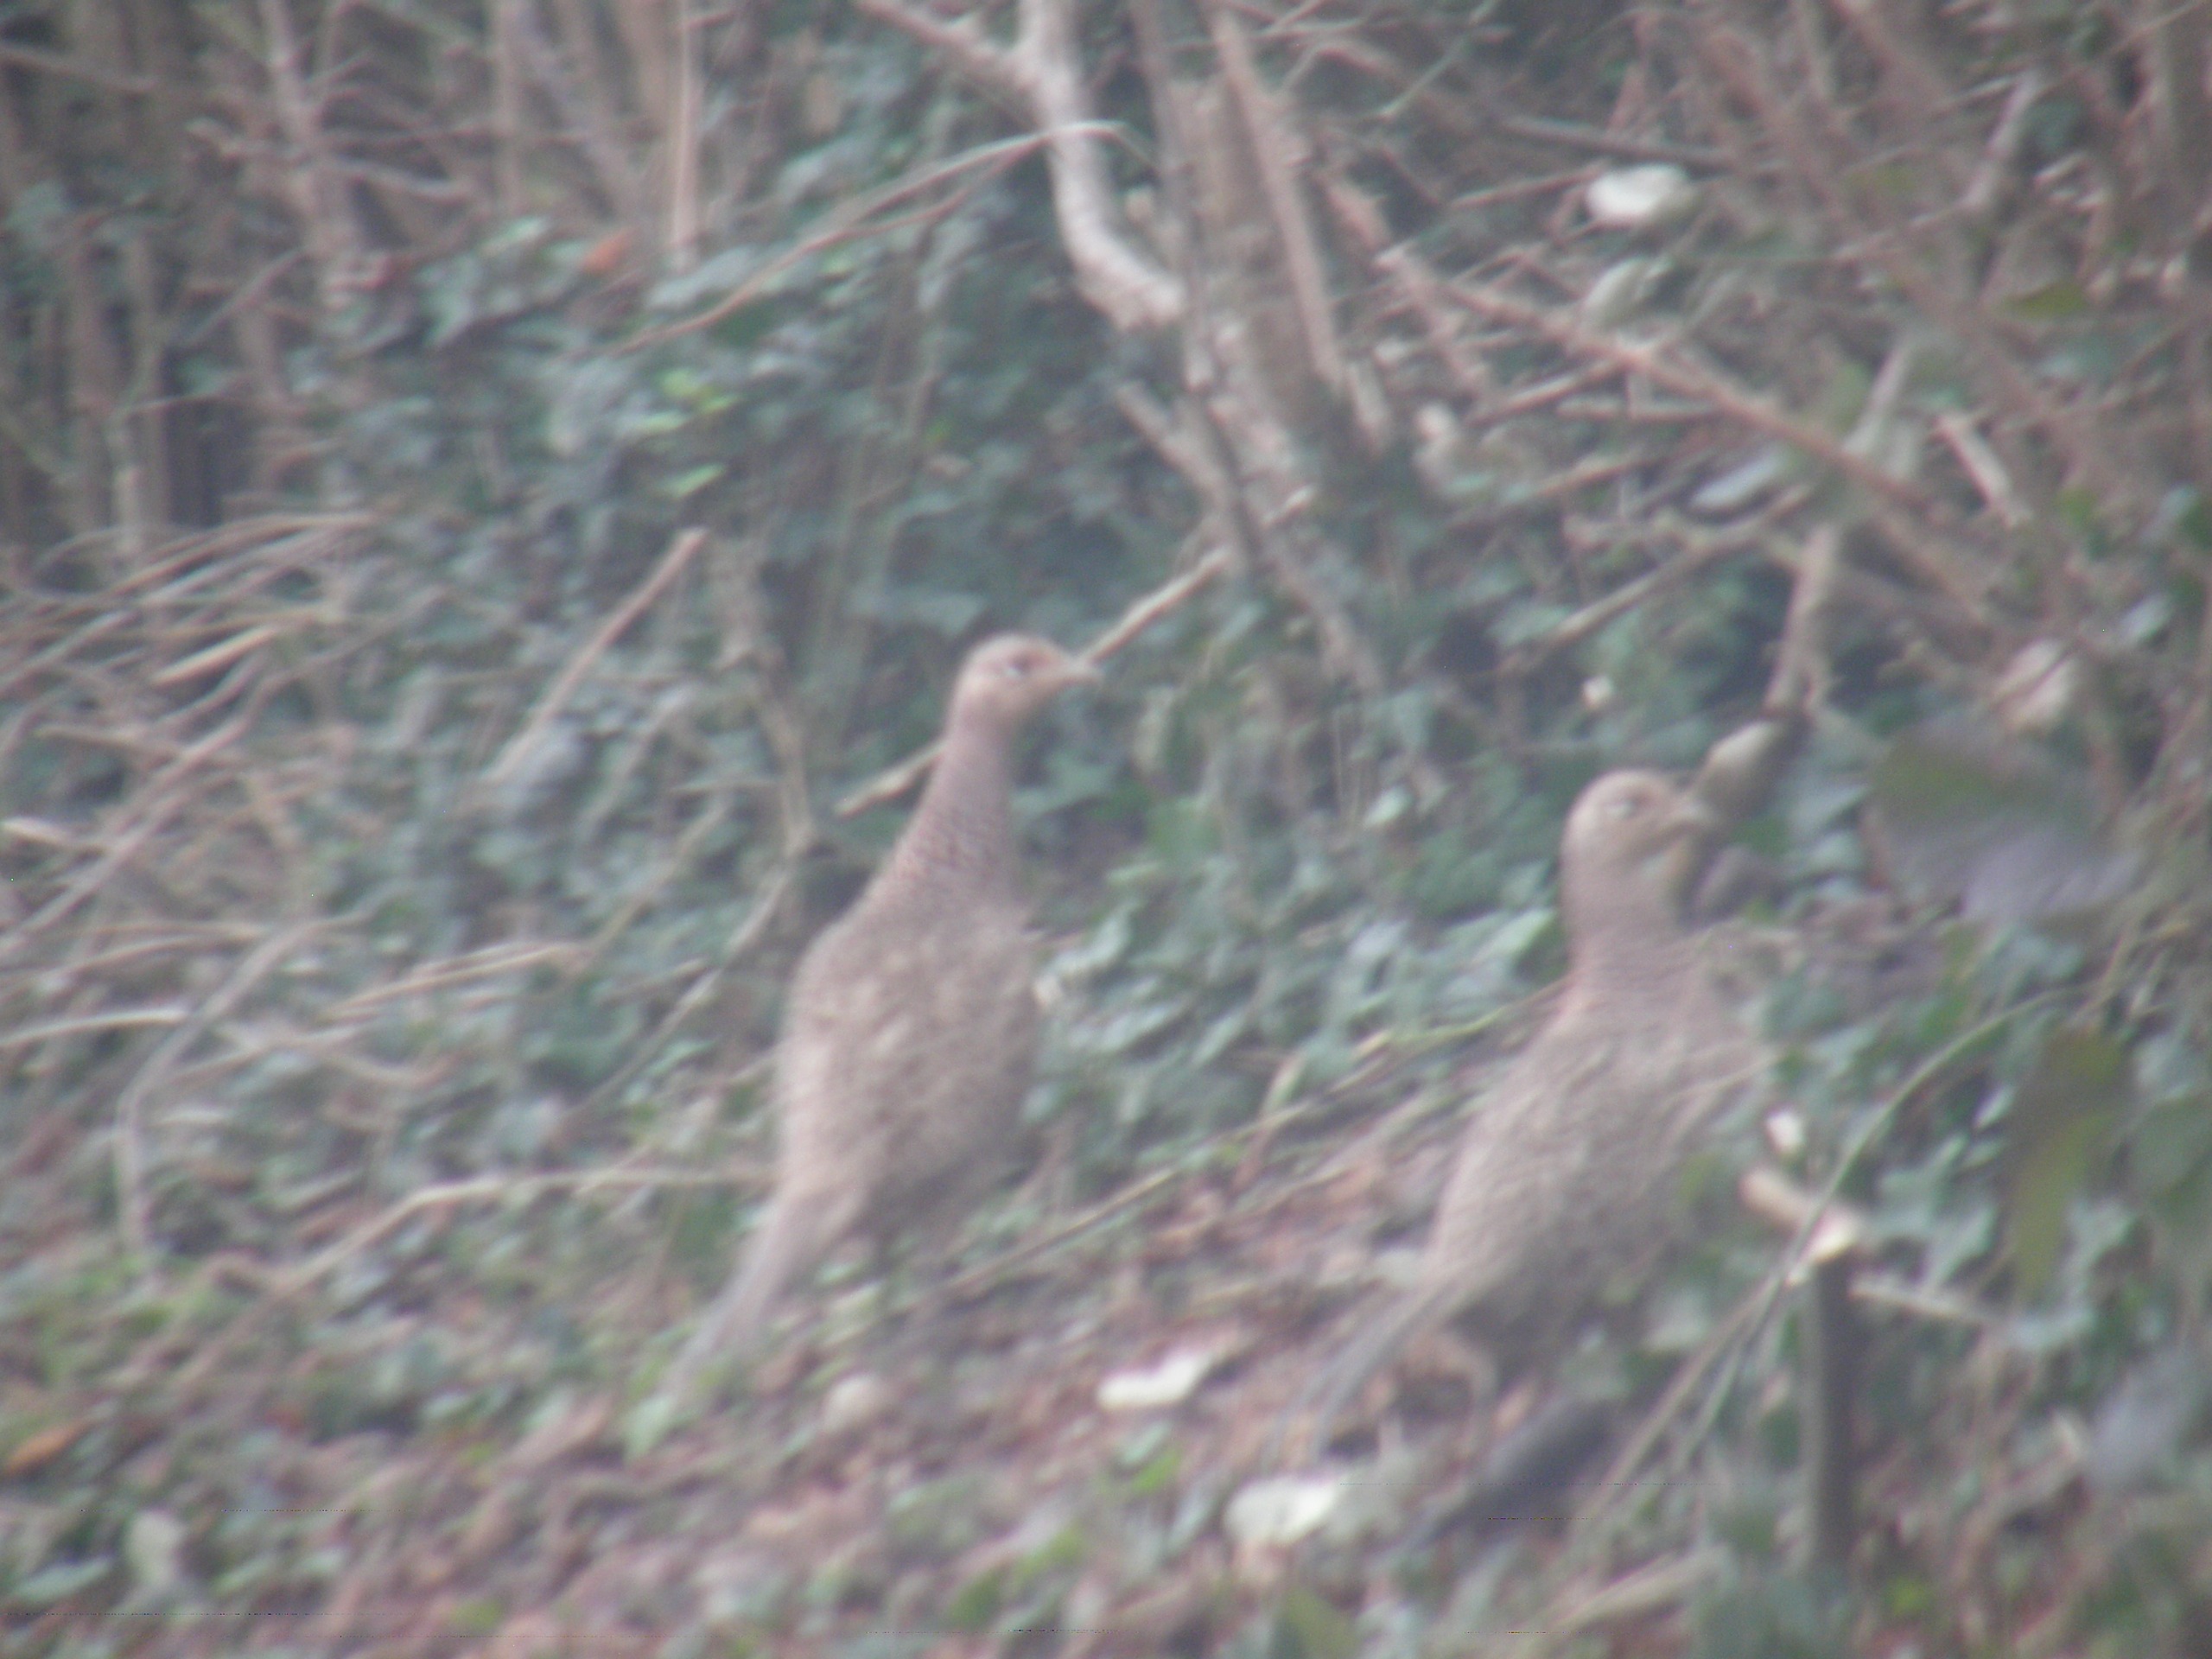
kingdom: Animalia
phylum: Chordata
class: Aves
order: Galliformes
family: Phasianidae
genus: Phasianus
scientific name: Phasianus colchicus
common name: Fasan
